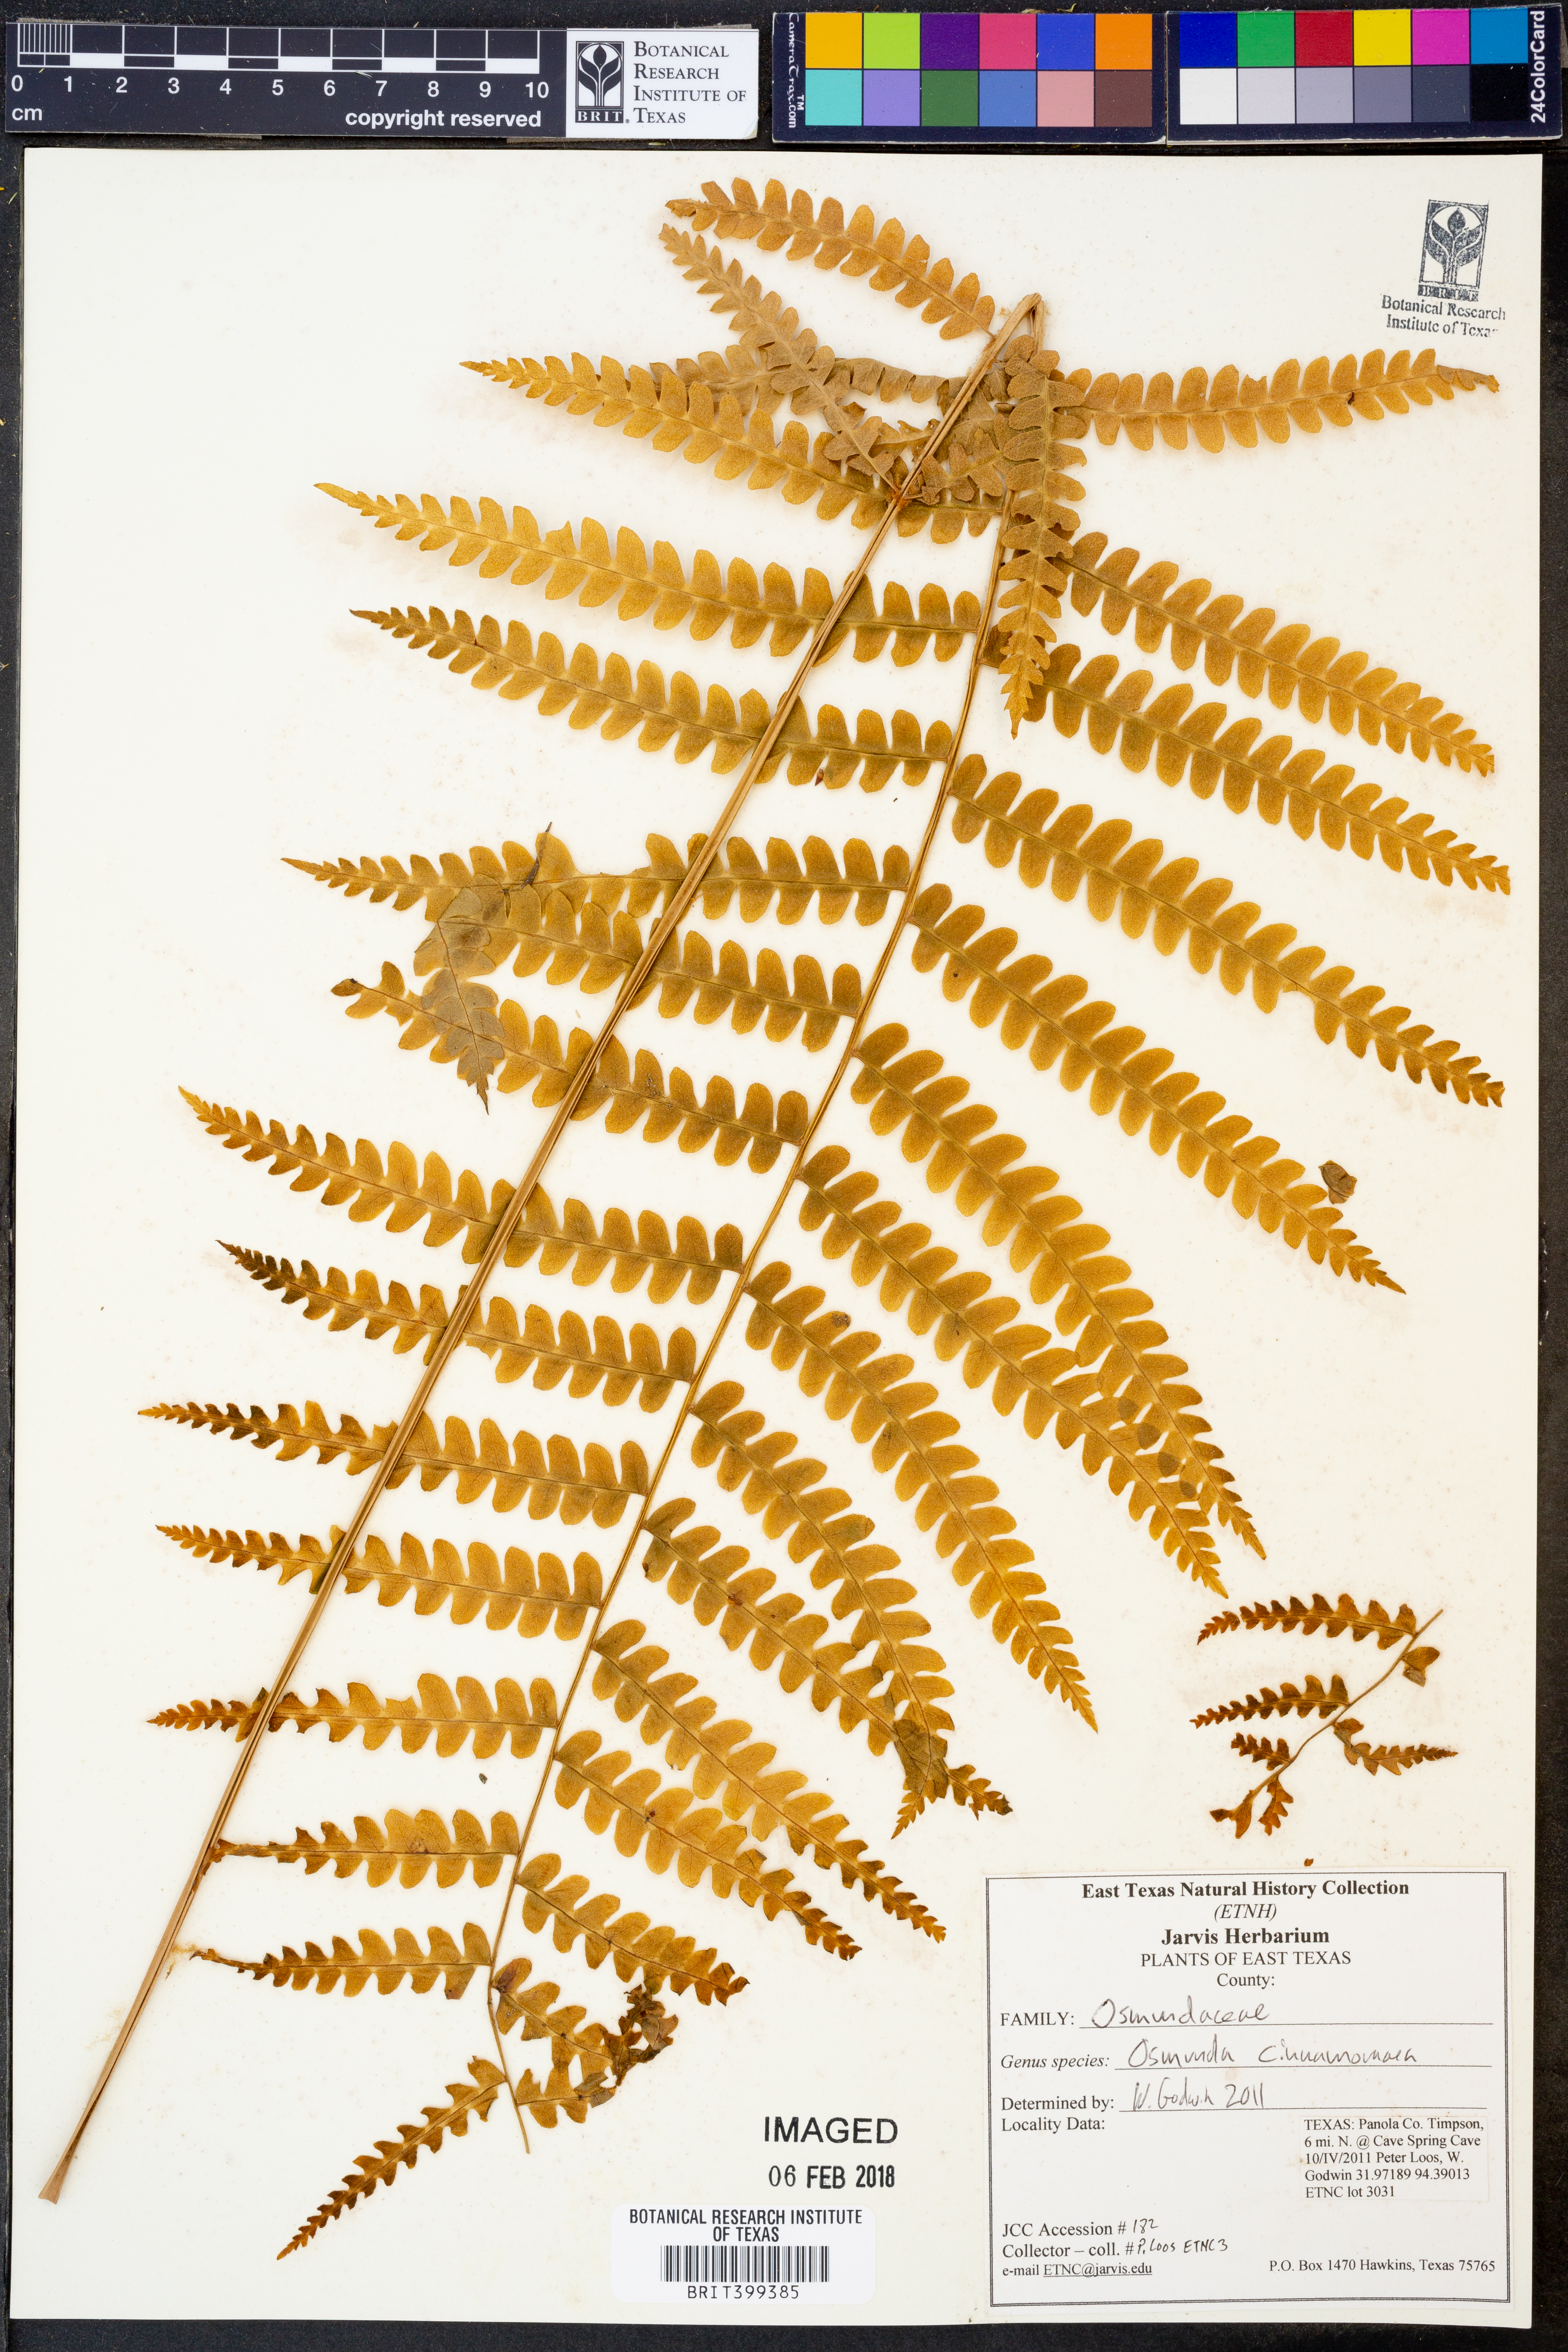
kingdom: Plantae
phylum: Tracheophyta
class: Polypodiopsida
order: Osmundales
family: Osmundaceae
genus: Osmundastrum
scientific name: Osmundastrum cinnamomeum
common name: Cinnamon fern
